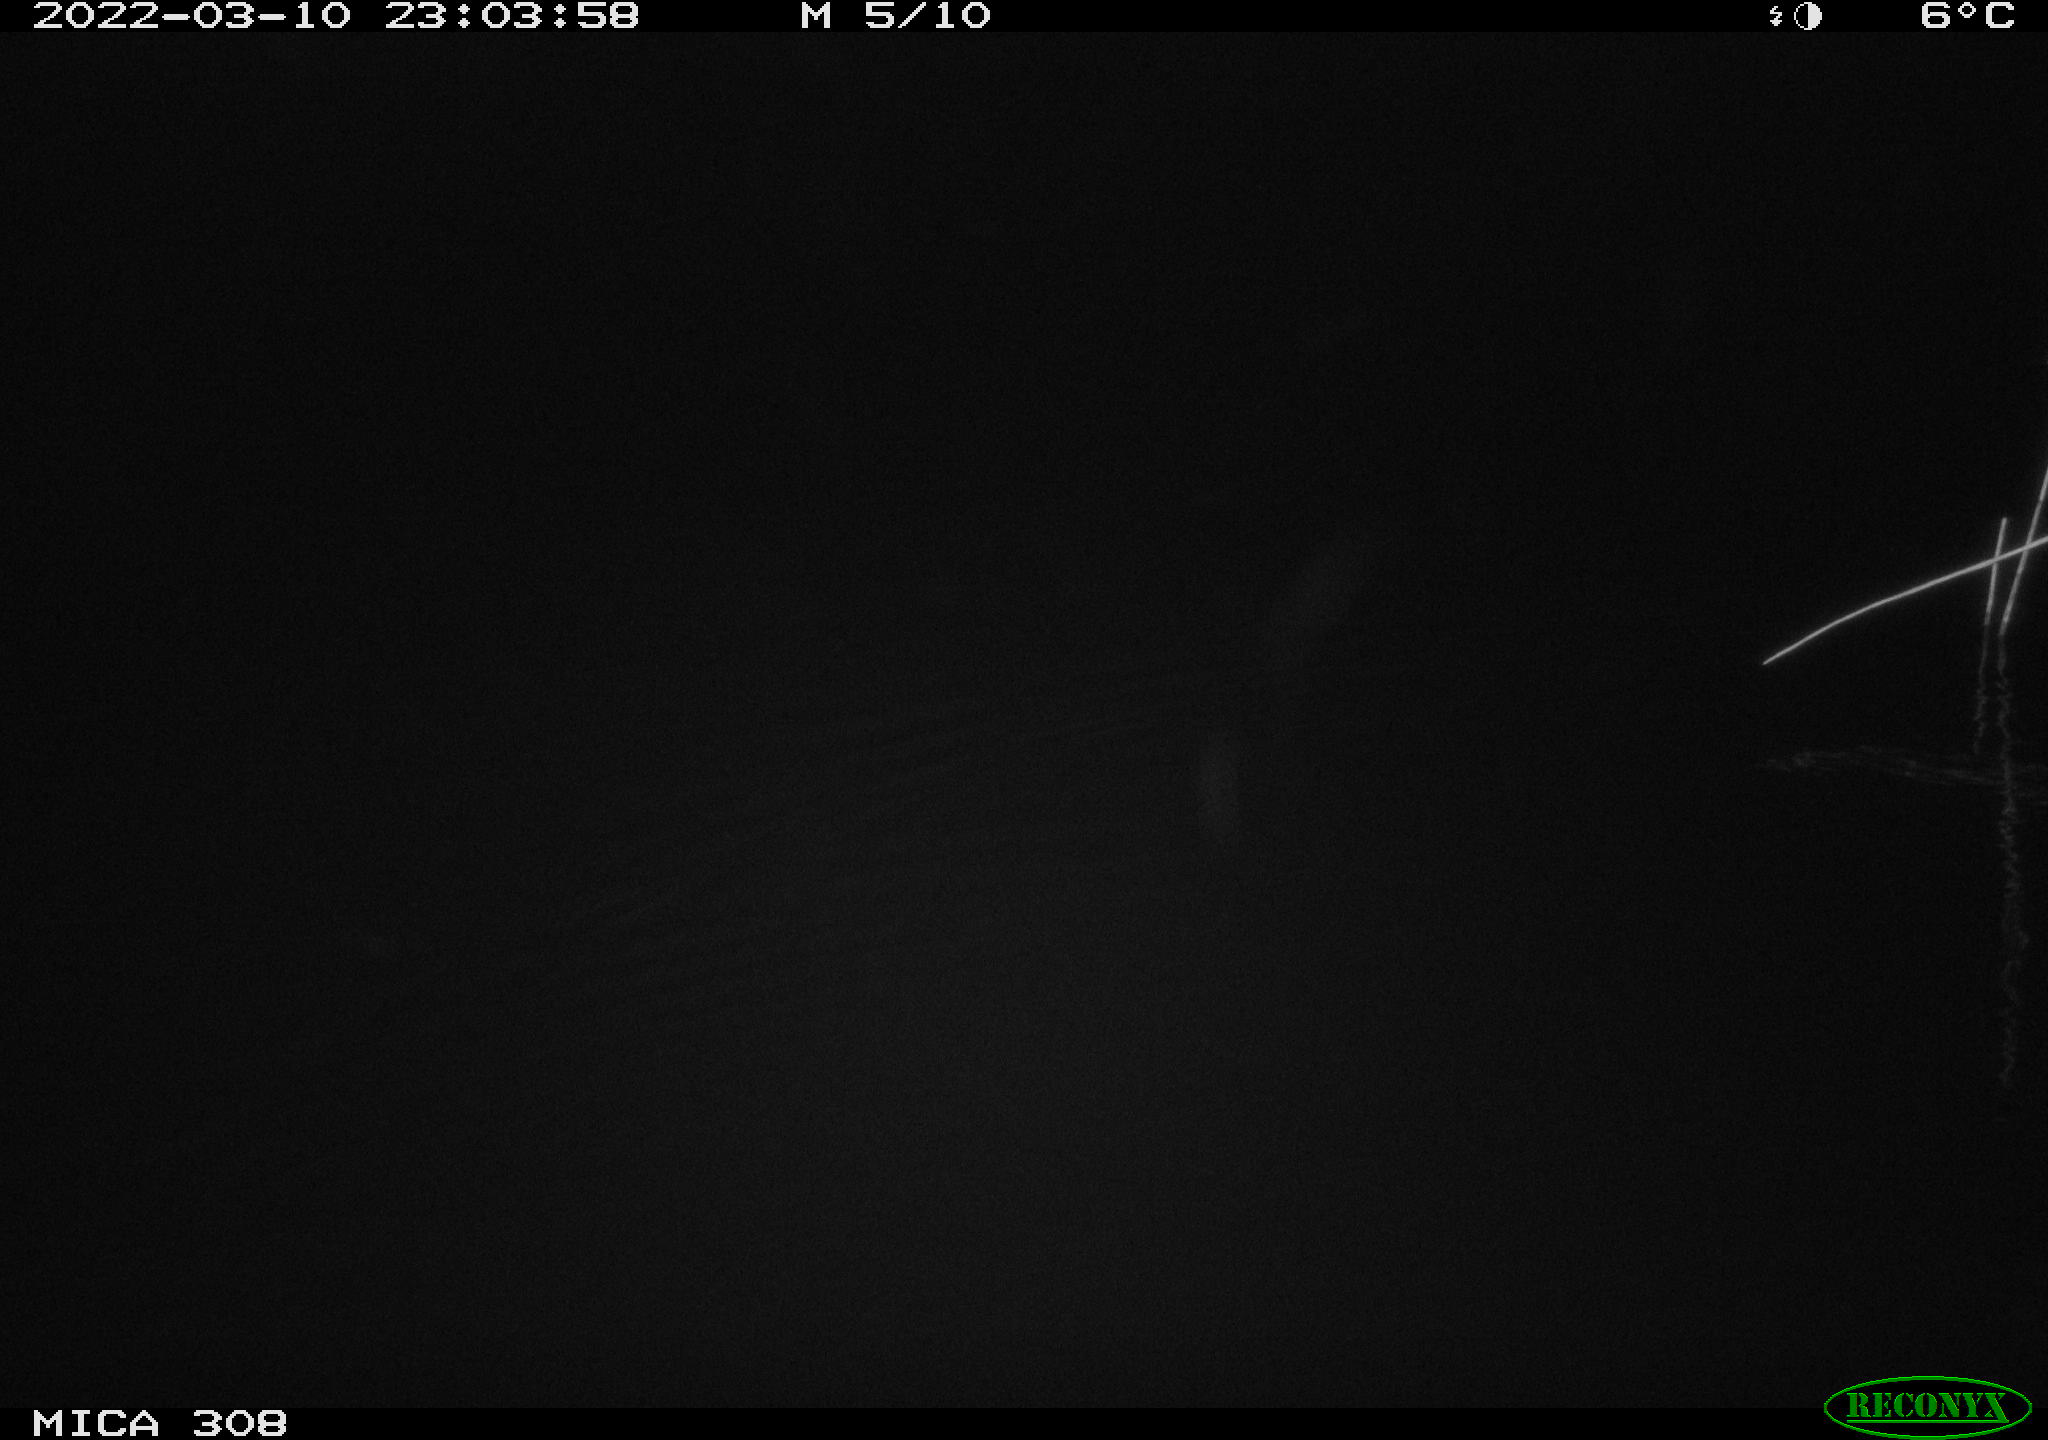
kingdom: Animalia
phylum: Chordata
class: Mammalia
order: Rodentia
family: Cricetidae
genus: Ondatra
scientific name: Ondatra zibethicus
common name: Muskrat
